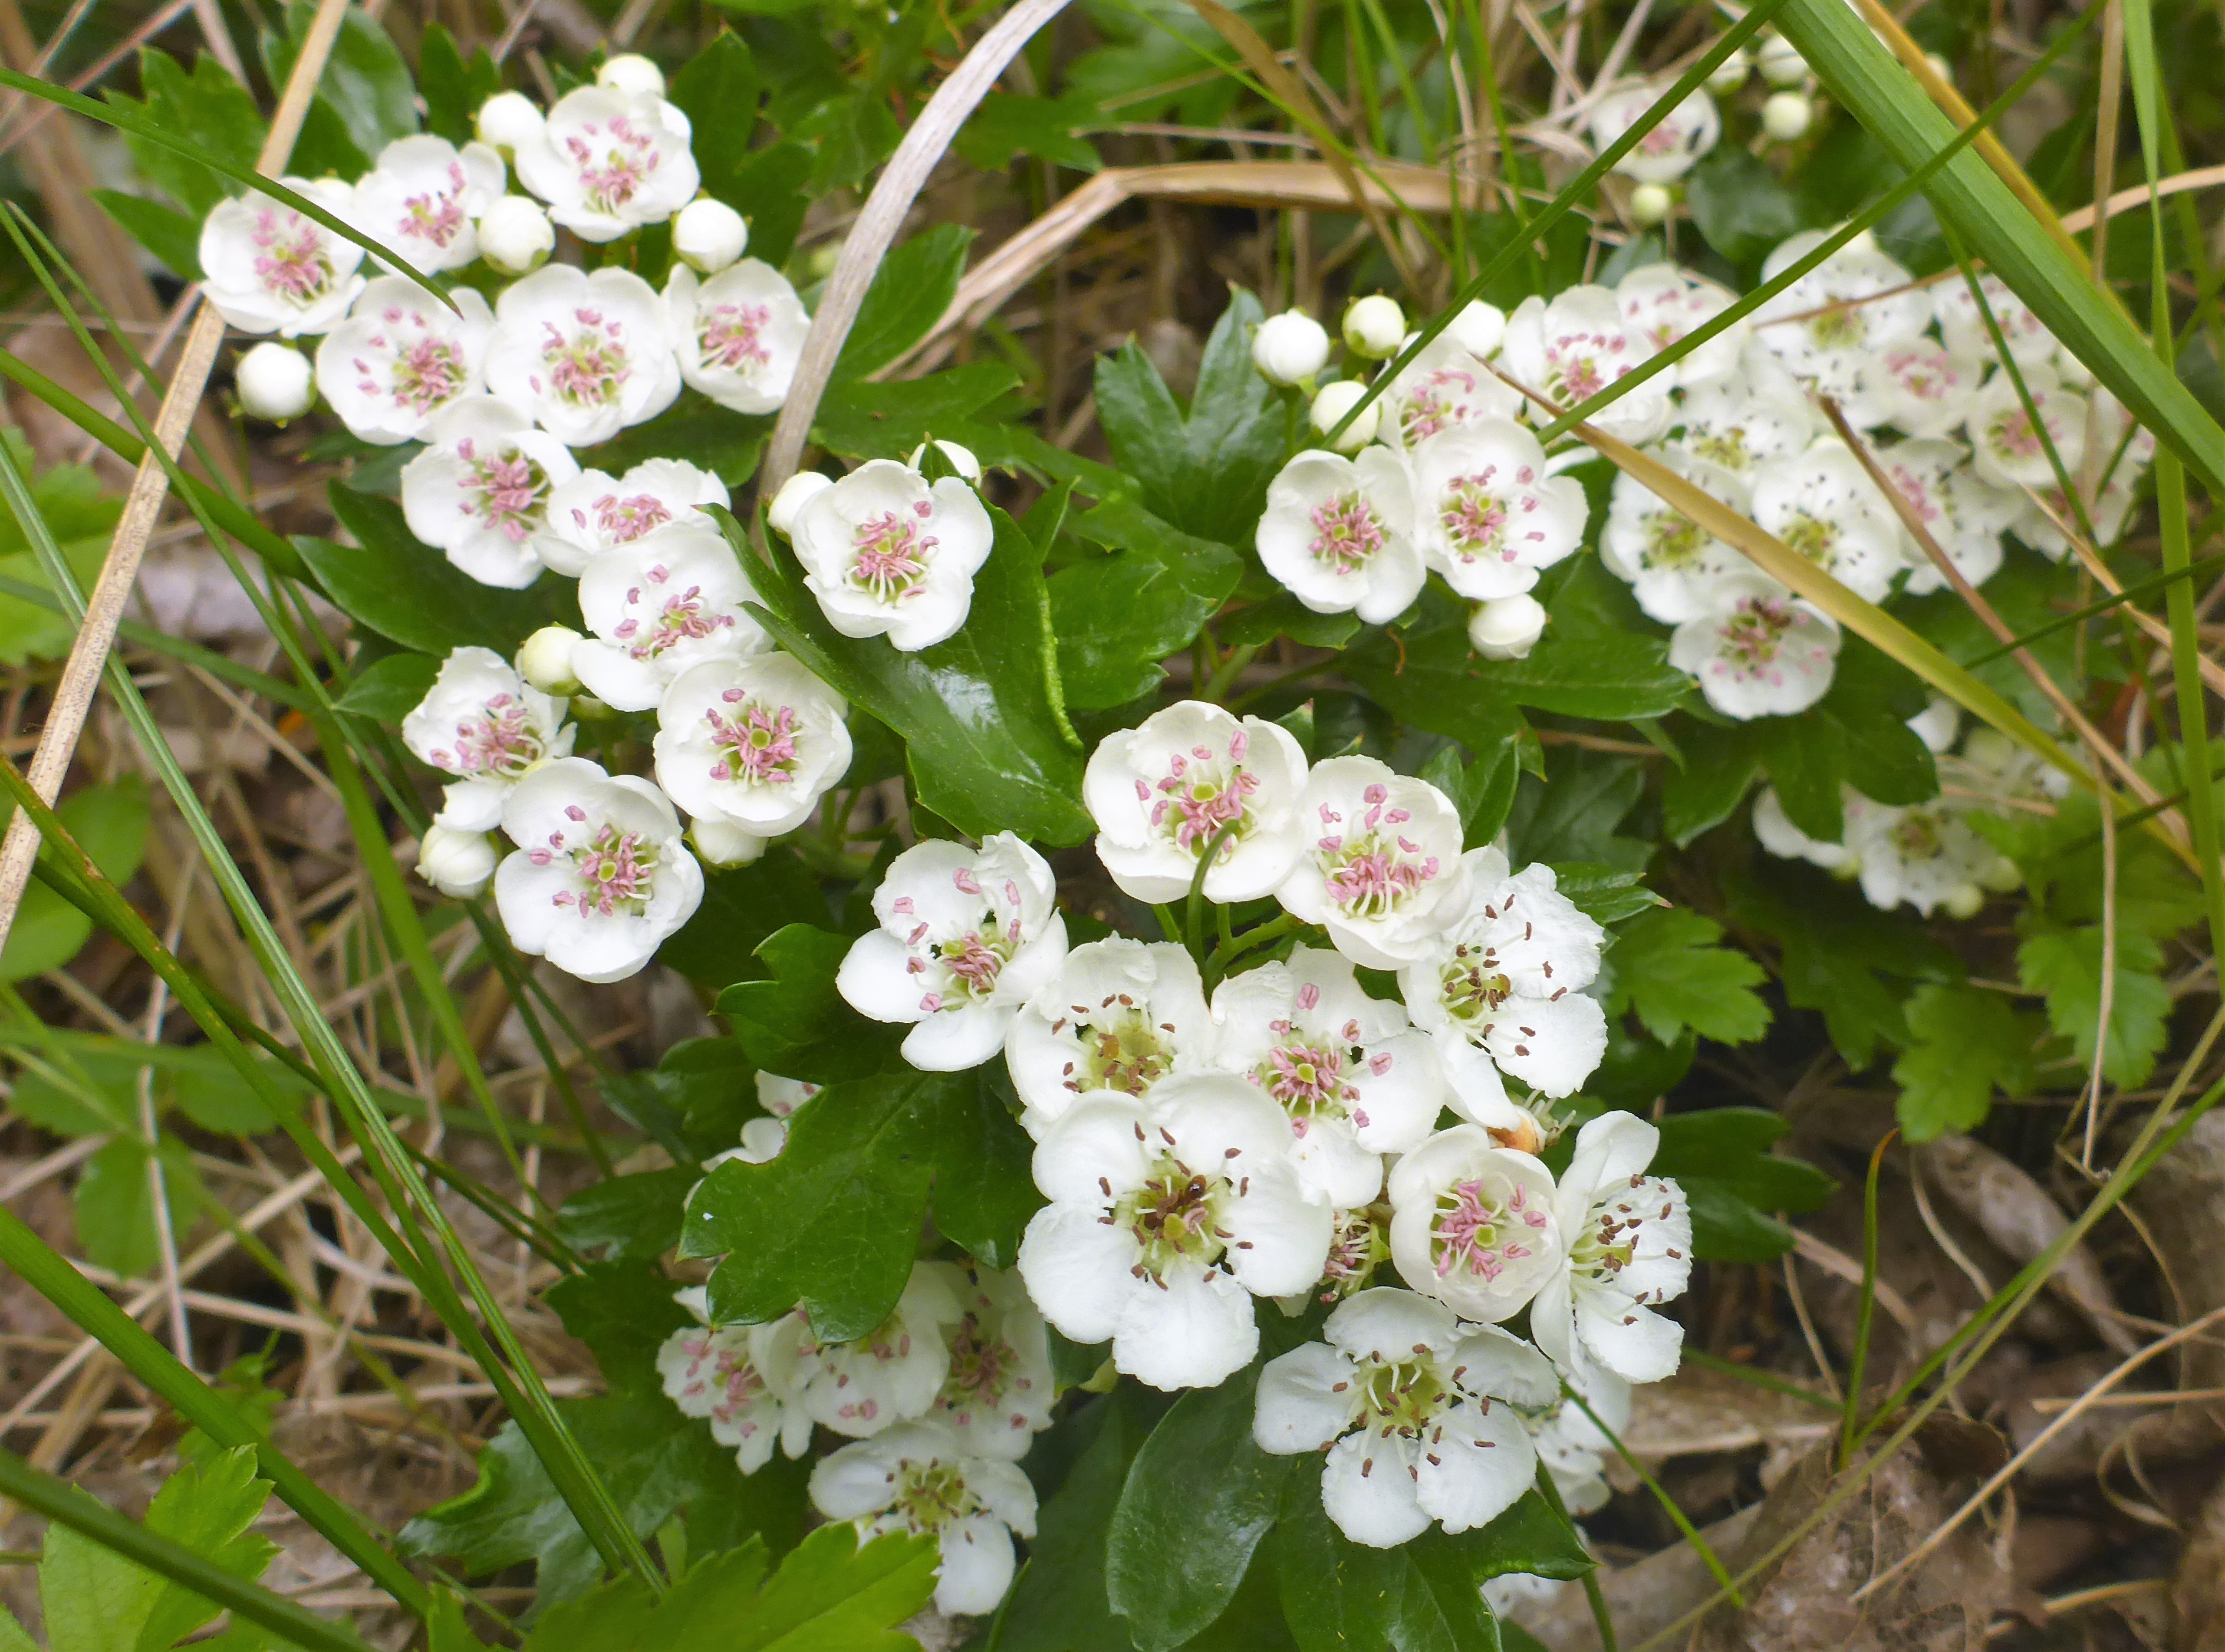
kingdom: Plantae
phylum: Tracheophyta
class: Magnoliopsida
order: Rosales
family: Rosaceae
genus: Crataegus
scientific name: Crataegus monogyna
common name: Engriflet hvidtjørn
